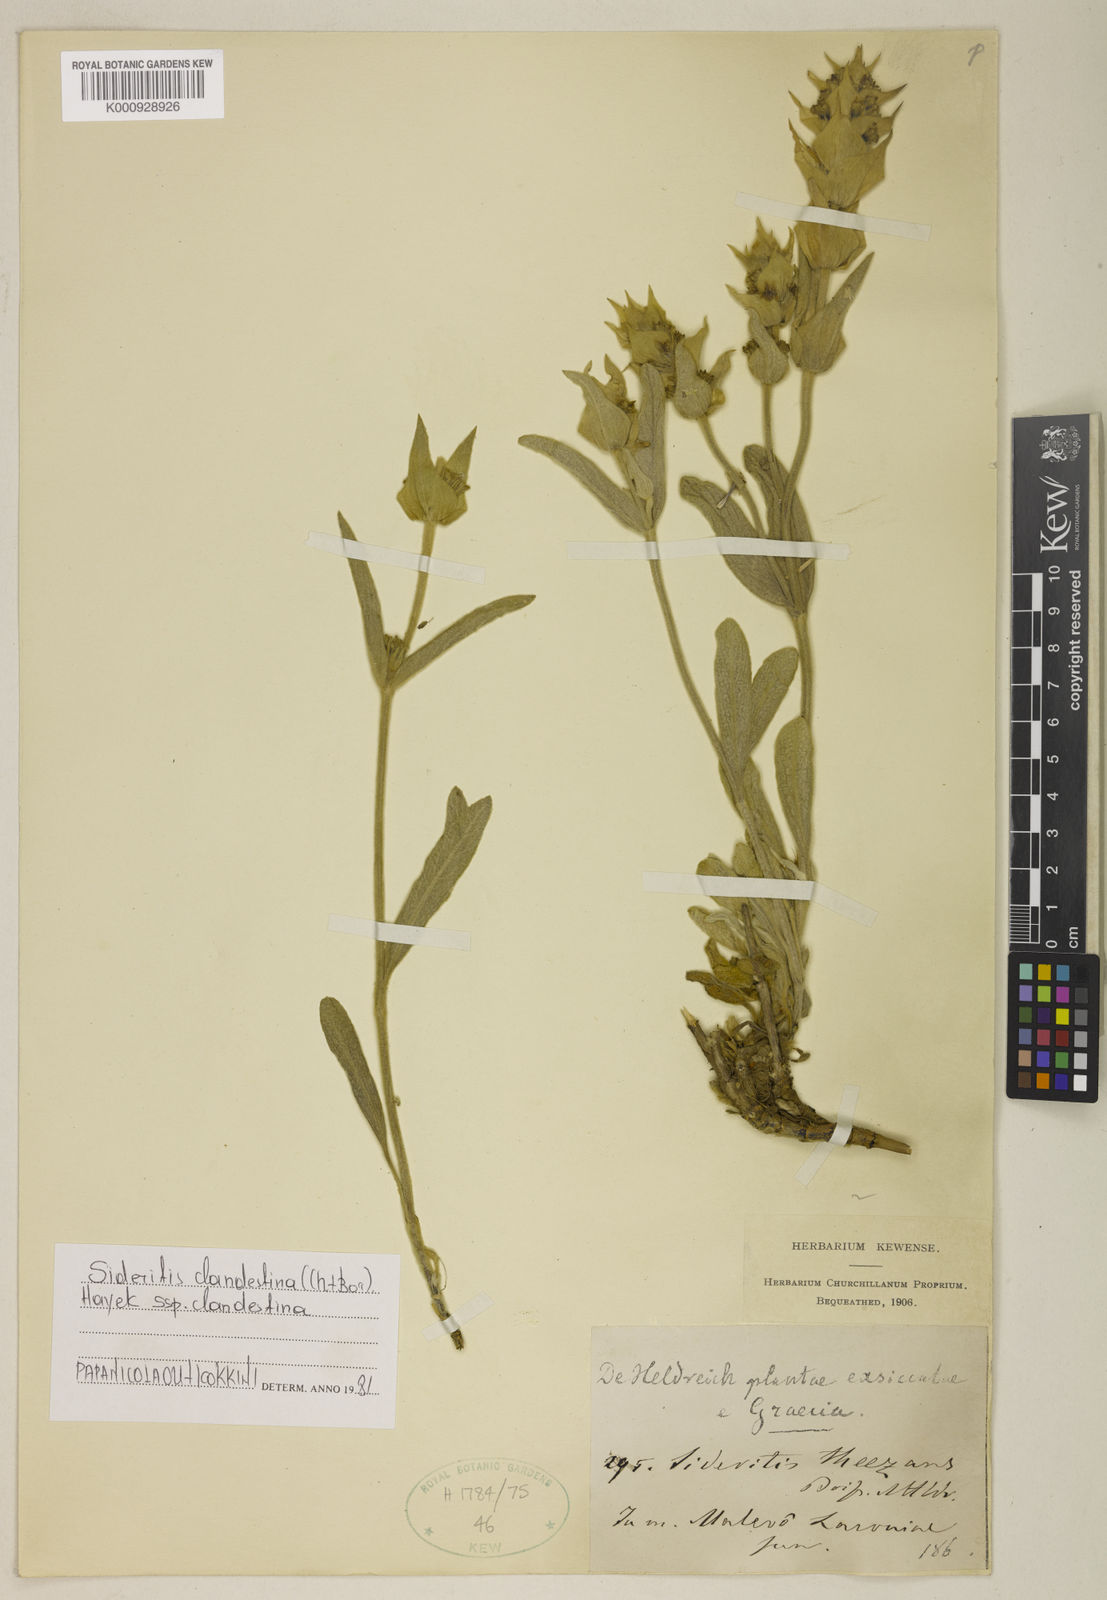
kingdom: Plantae
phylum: Tracheophyta
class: Magnoliopsida
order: Lamiales
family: Lamiaceae
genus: Sideritis
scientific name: Sideritis clandestina
